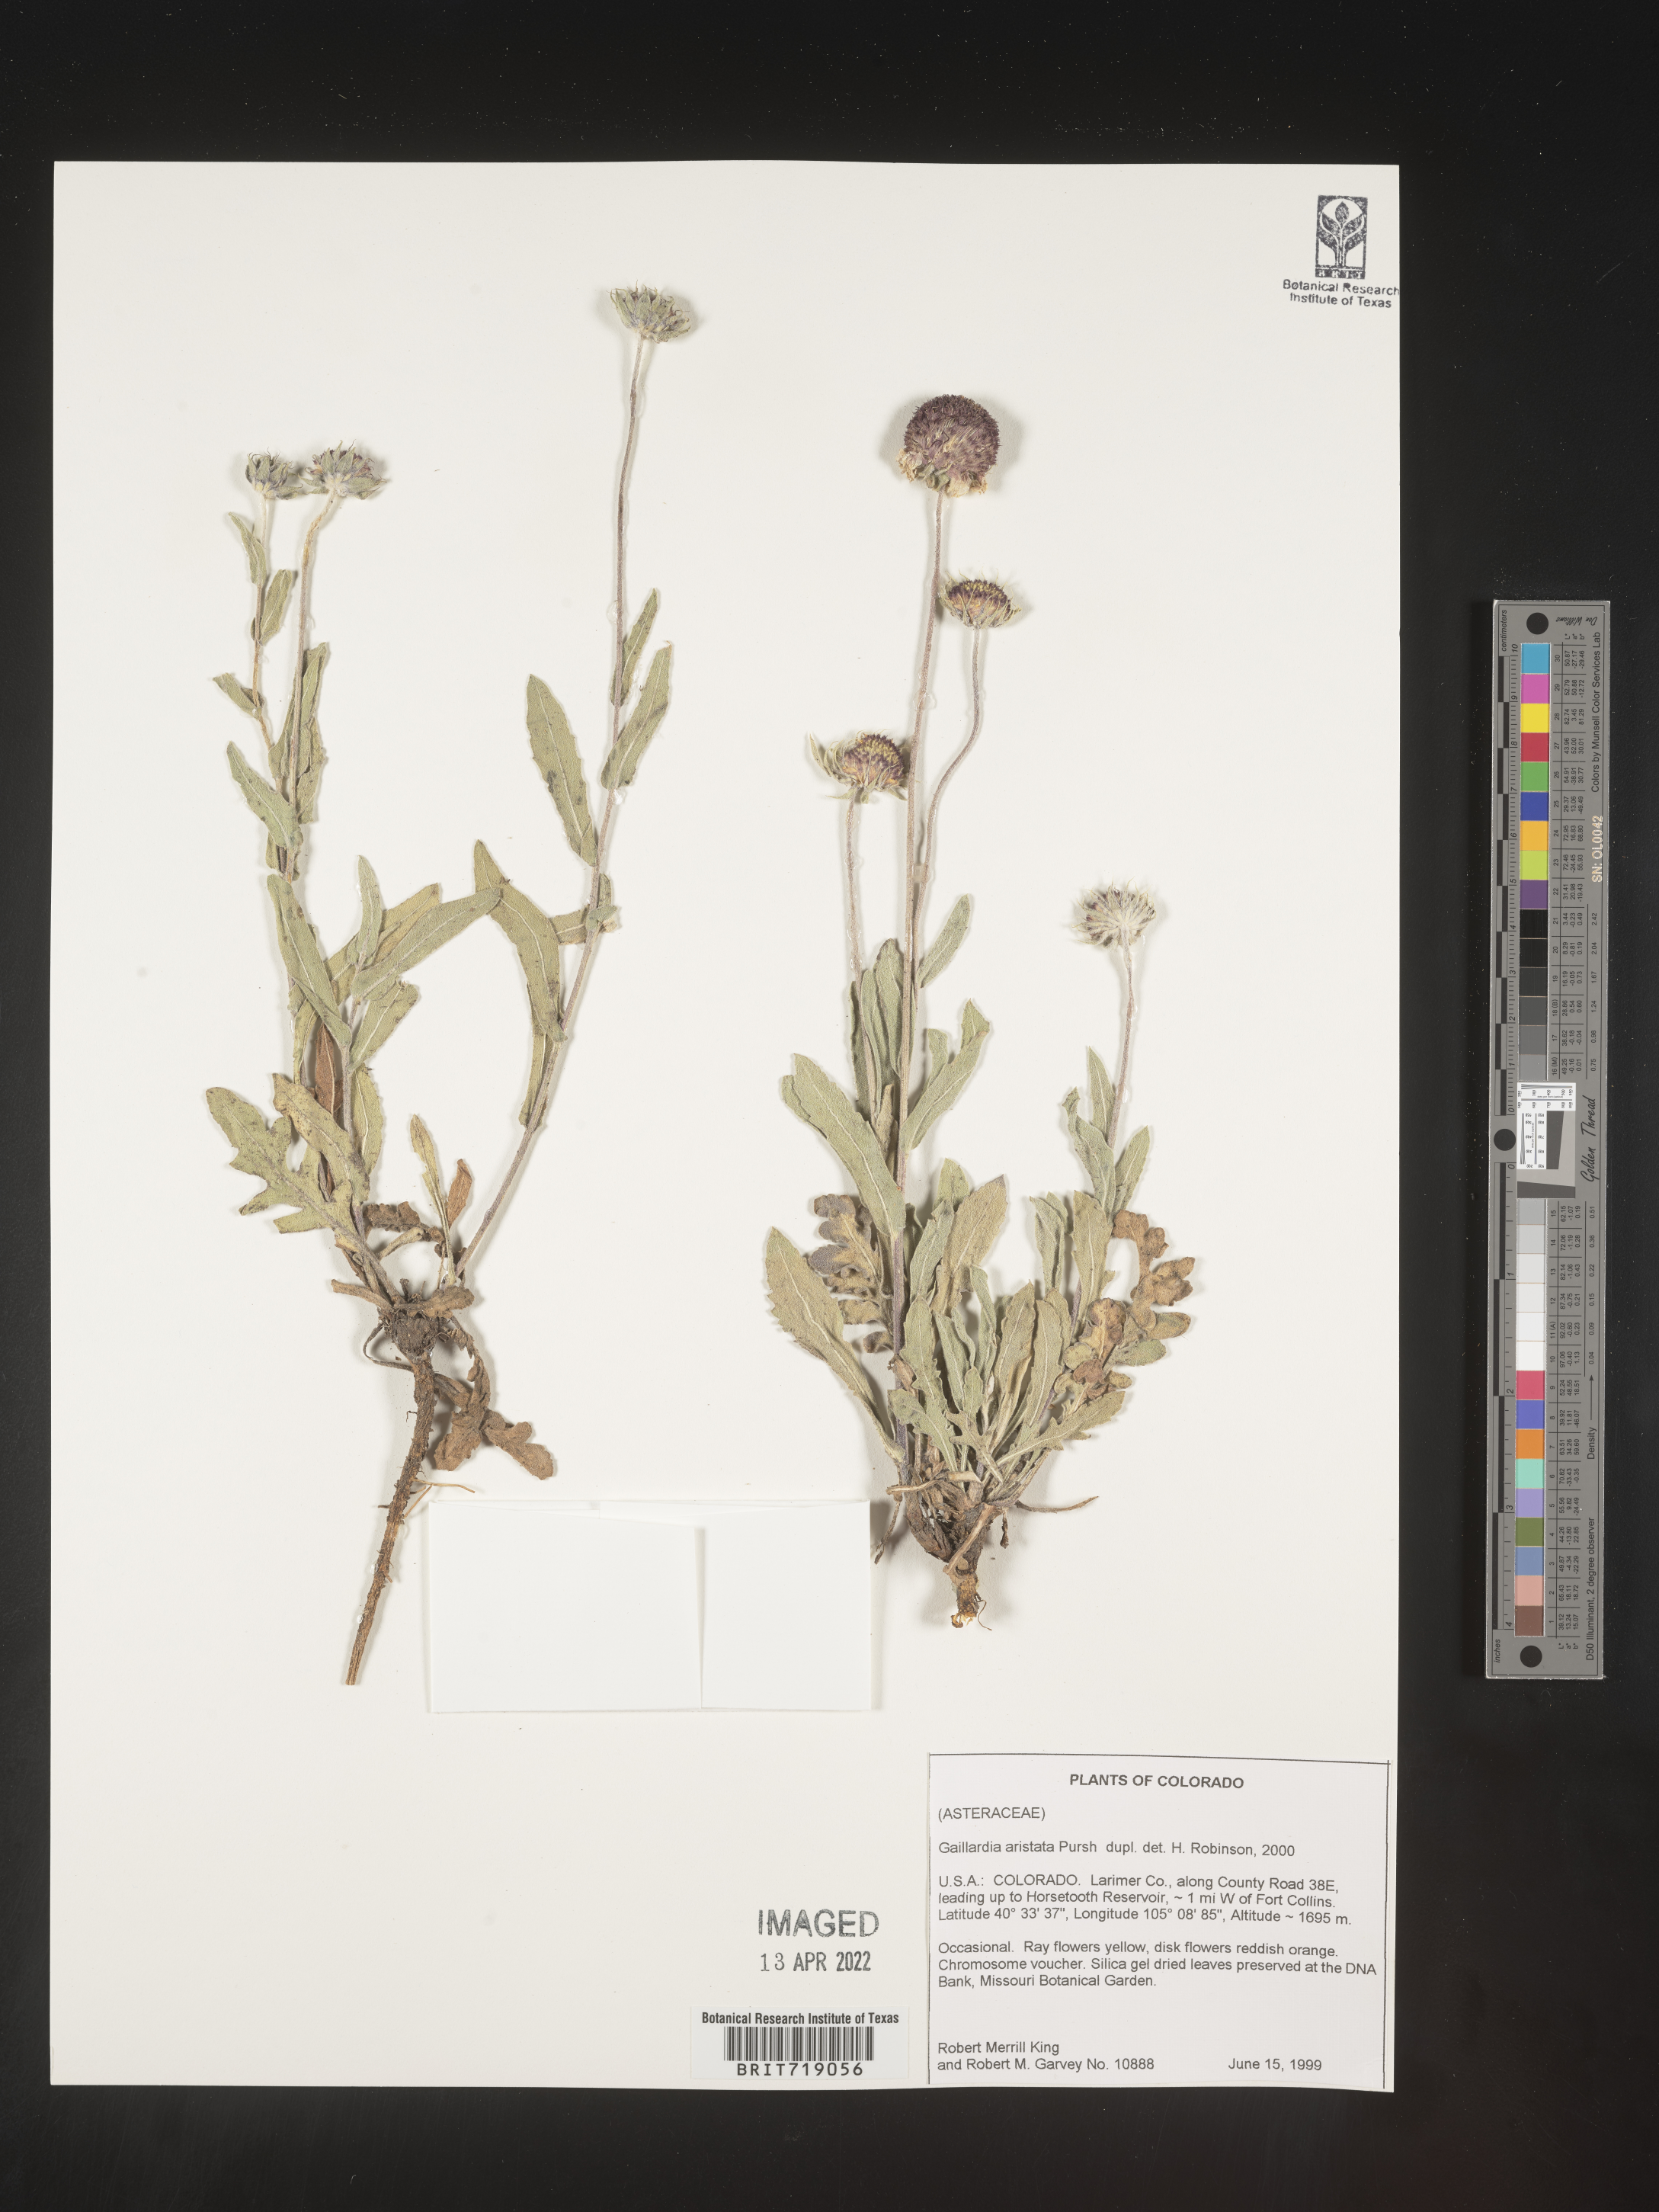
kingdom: Plantae
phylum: Tracheophyta
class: Magnoliopsida
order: Asterales
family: Asteraceae
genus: Gaillardia
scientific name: Gaillardia aristata
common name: Blanket-flower
